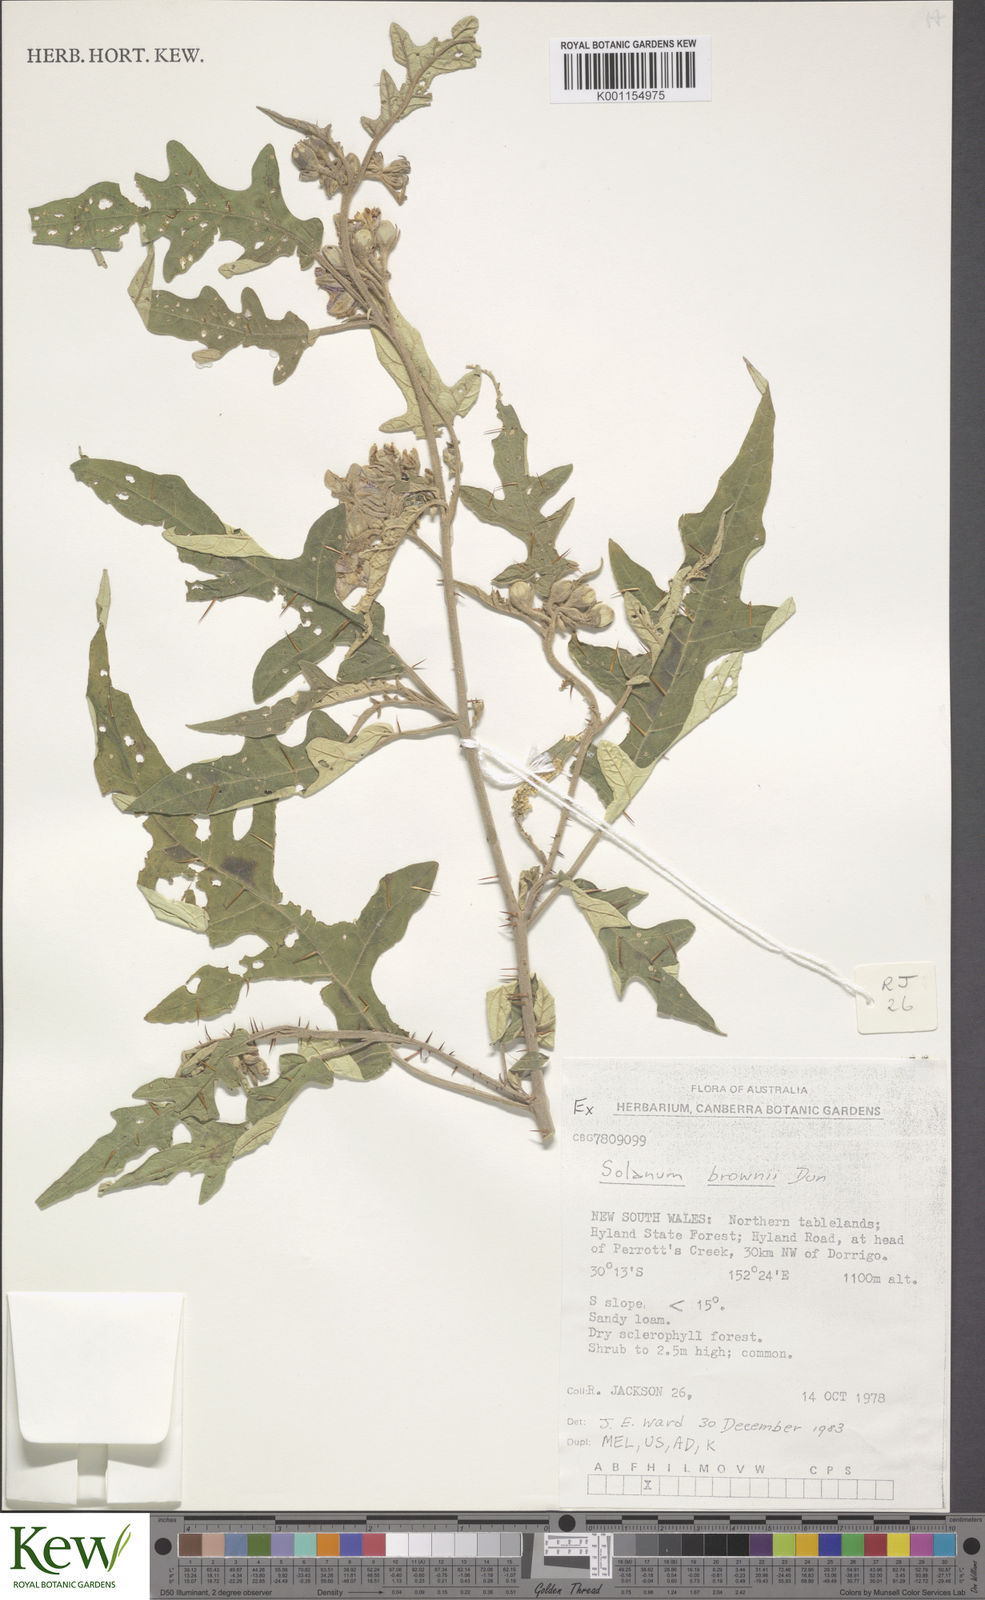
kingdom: Plantae
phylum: Tracheophyta
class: Magnoliopsida
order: Solanales
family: Solanaceae
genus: Solanum
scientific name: Solanum brownii
